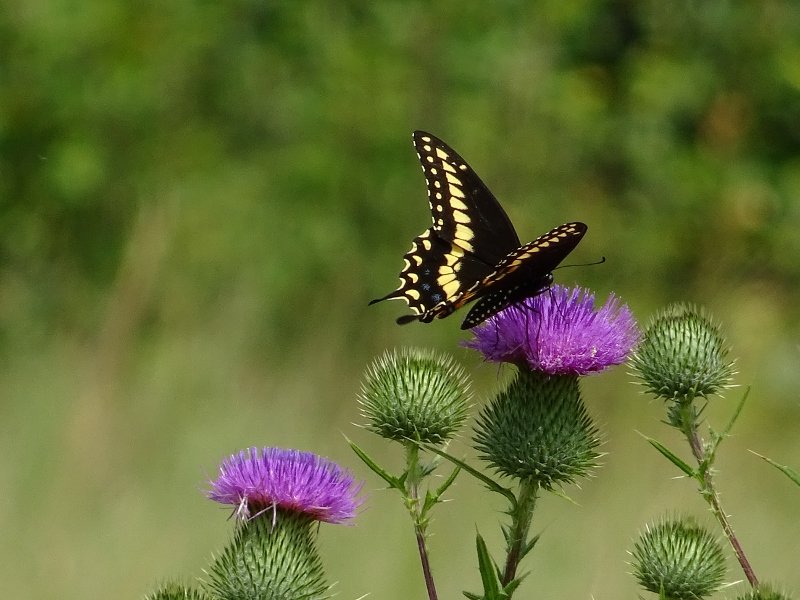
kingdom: Animalia
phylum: Arthropoda
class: Insecta
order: Lepidoptera
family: Papilionidae
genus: Papilio
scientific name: Papilio polyxenes
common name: Black Swallowtail
